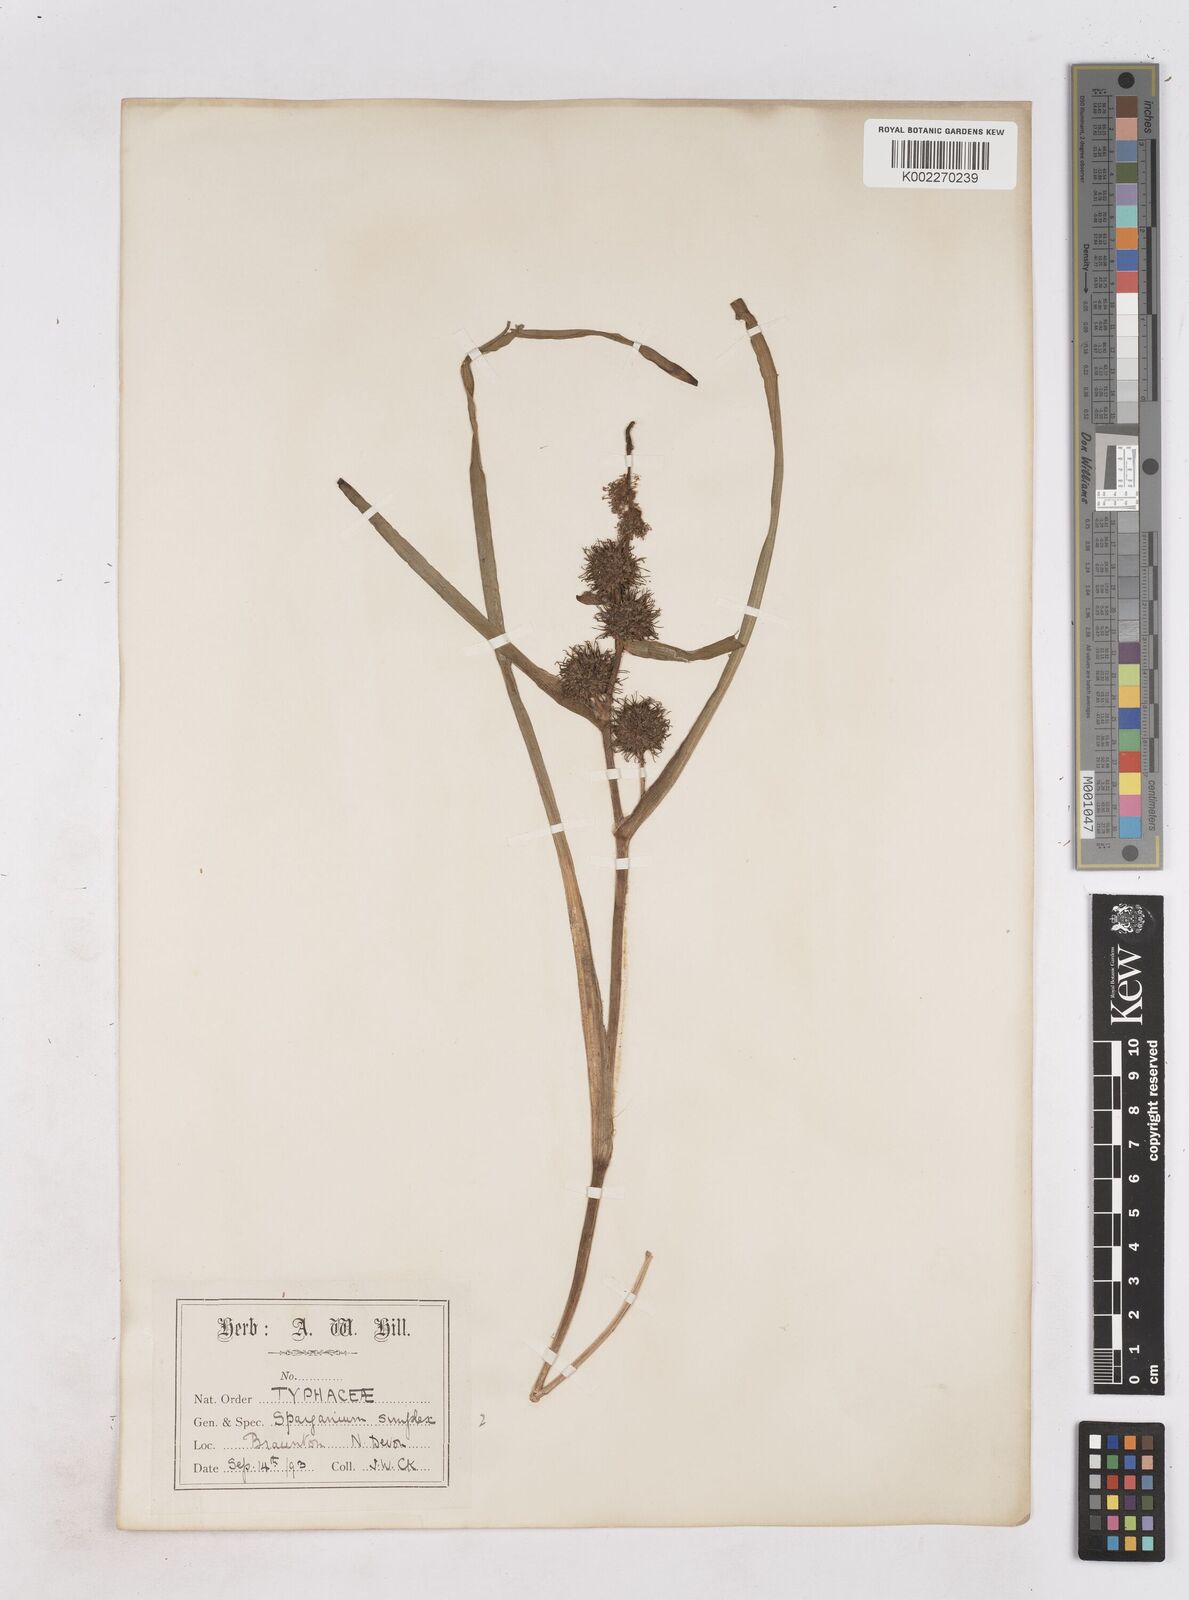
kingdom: Plantae
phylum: Tracheophyta
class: Liliopsida
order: Poales
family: Typhaceae
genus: Sparganium
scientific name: Sparganium emersum
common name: Unbranched bur-reed
